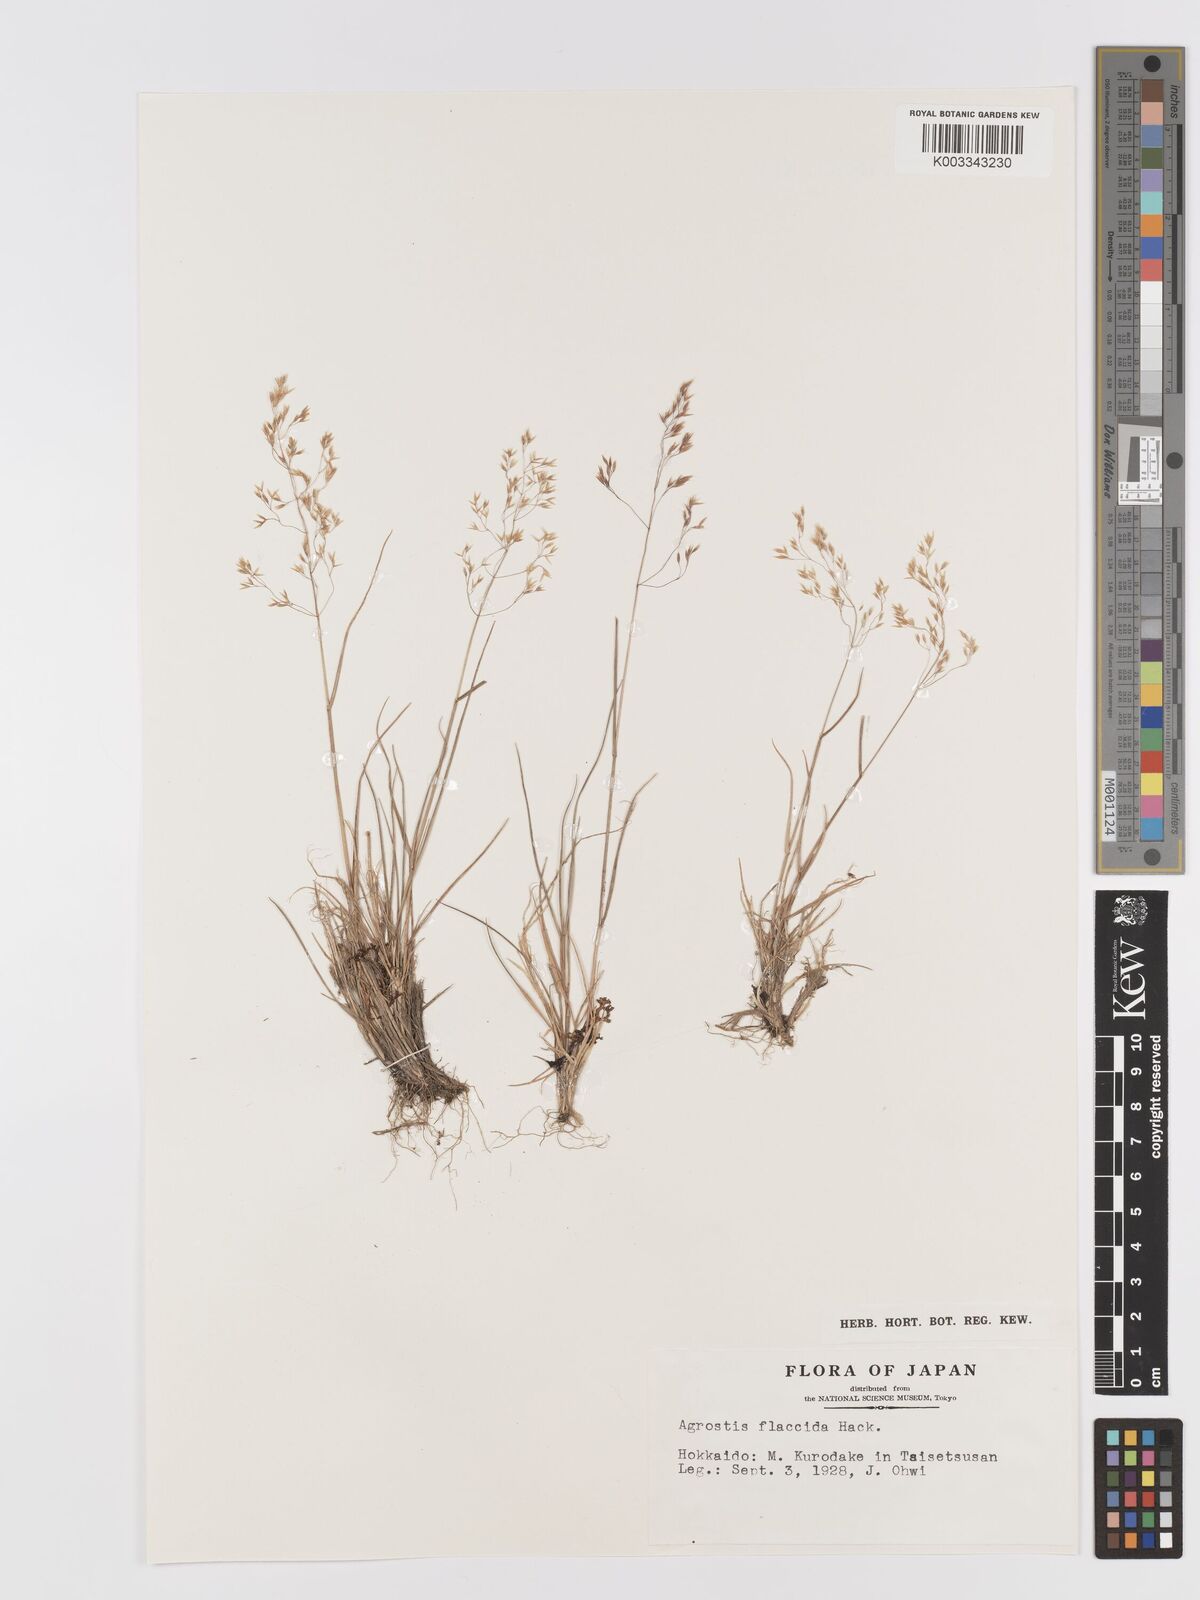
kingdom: Plantae
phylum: Tracheophyta
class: Liliopsida
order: Poales
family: Poaceae
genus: Agrostis
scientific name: Agrostis flaccida
